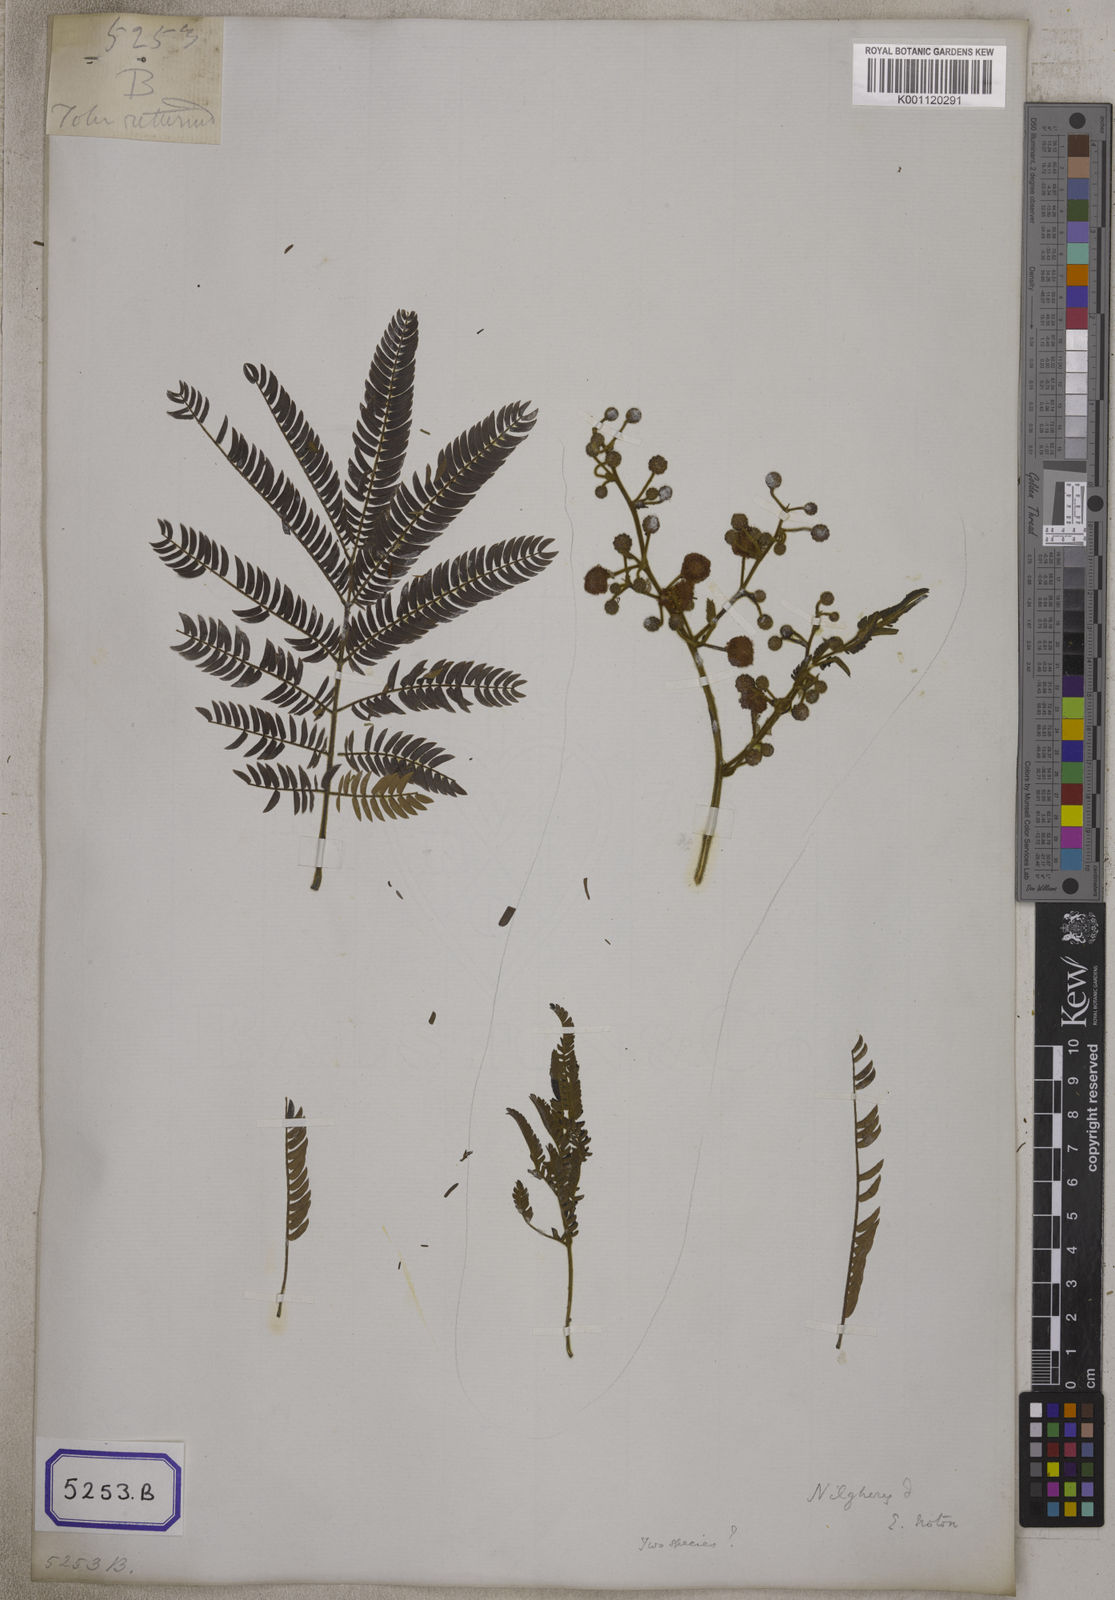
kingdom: Plantae
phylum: Tracheophyta
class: Magnoliopsida
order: Fabales
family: Fabaceae
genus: Acacia
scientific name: Acacia
